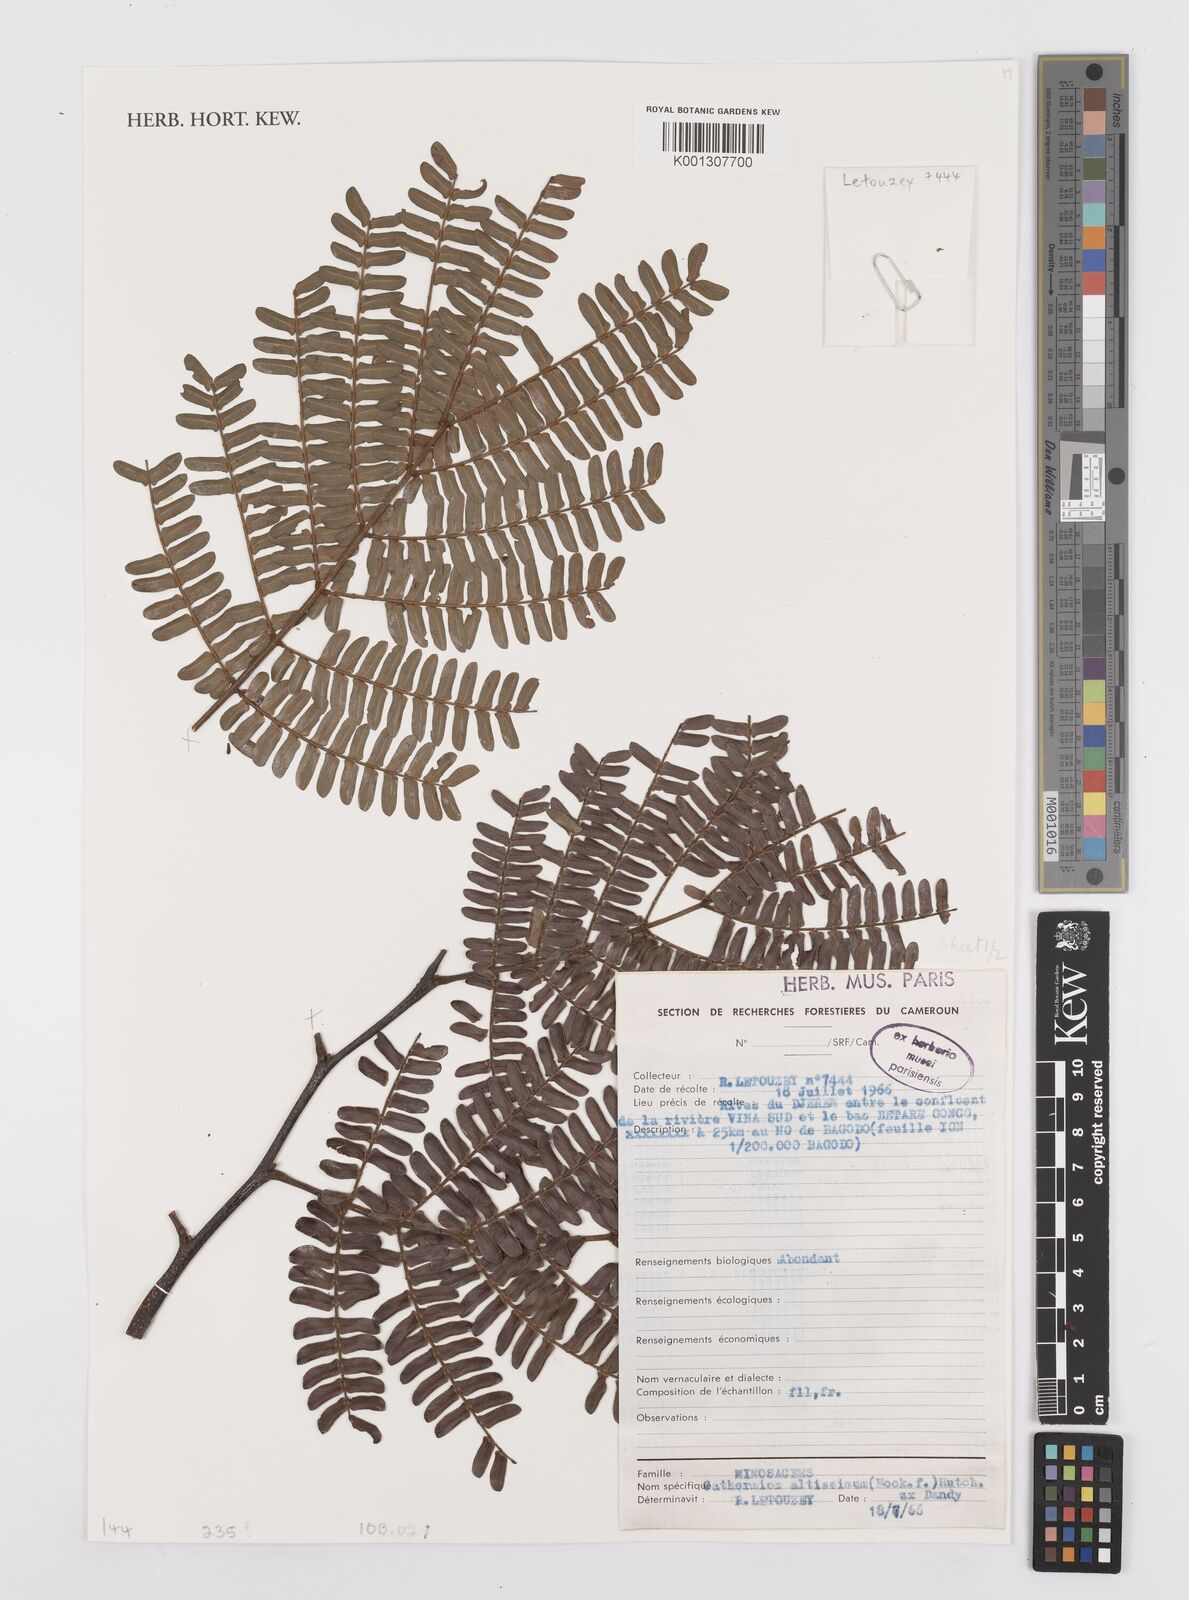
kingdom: Plantae
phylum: Tracheophyta
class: Magnoliopsida
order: Fabales
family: Fabaceae
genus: Albizia
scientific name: Albizia altissima
